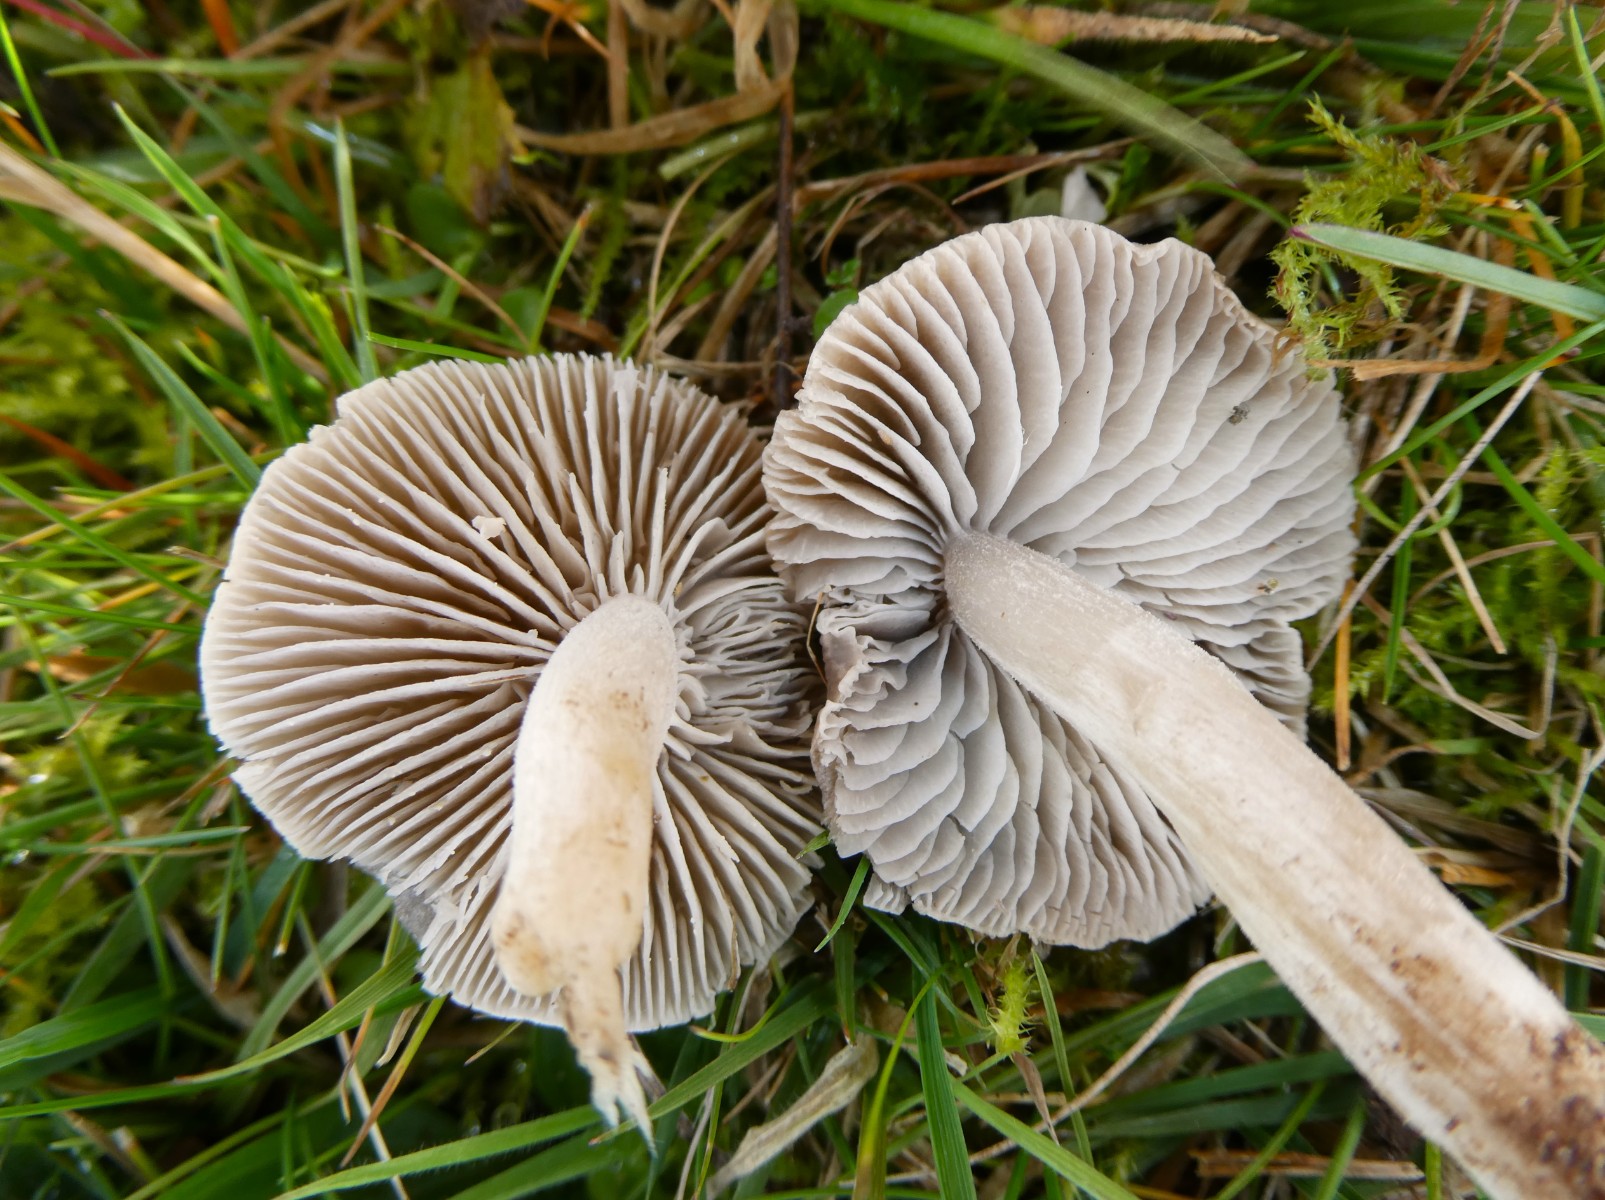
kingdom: Fungi
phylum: Basidiomycota
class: Agaricomycetes
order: Agaricales
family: Tricholomataceae
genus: Dermoloma
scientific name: Dermoloma cuneifolium
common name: eng-nonnehat
